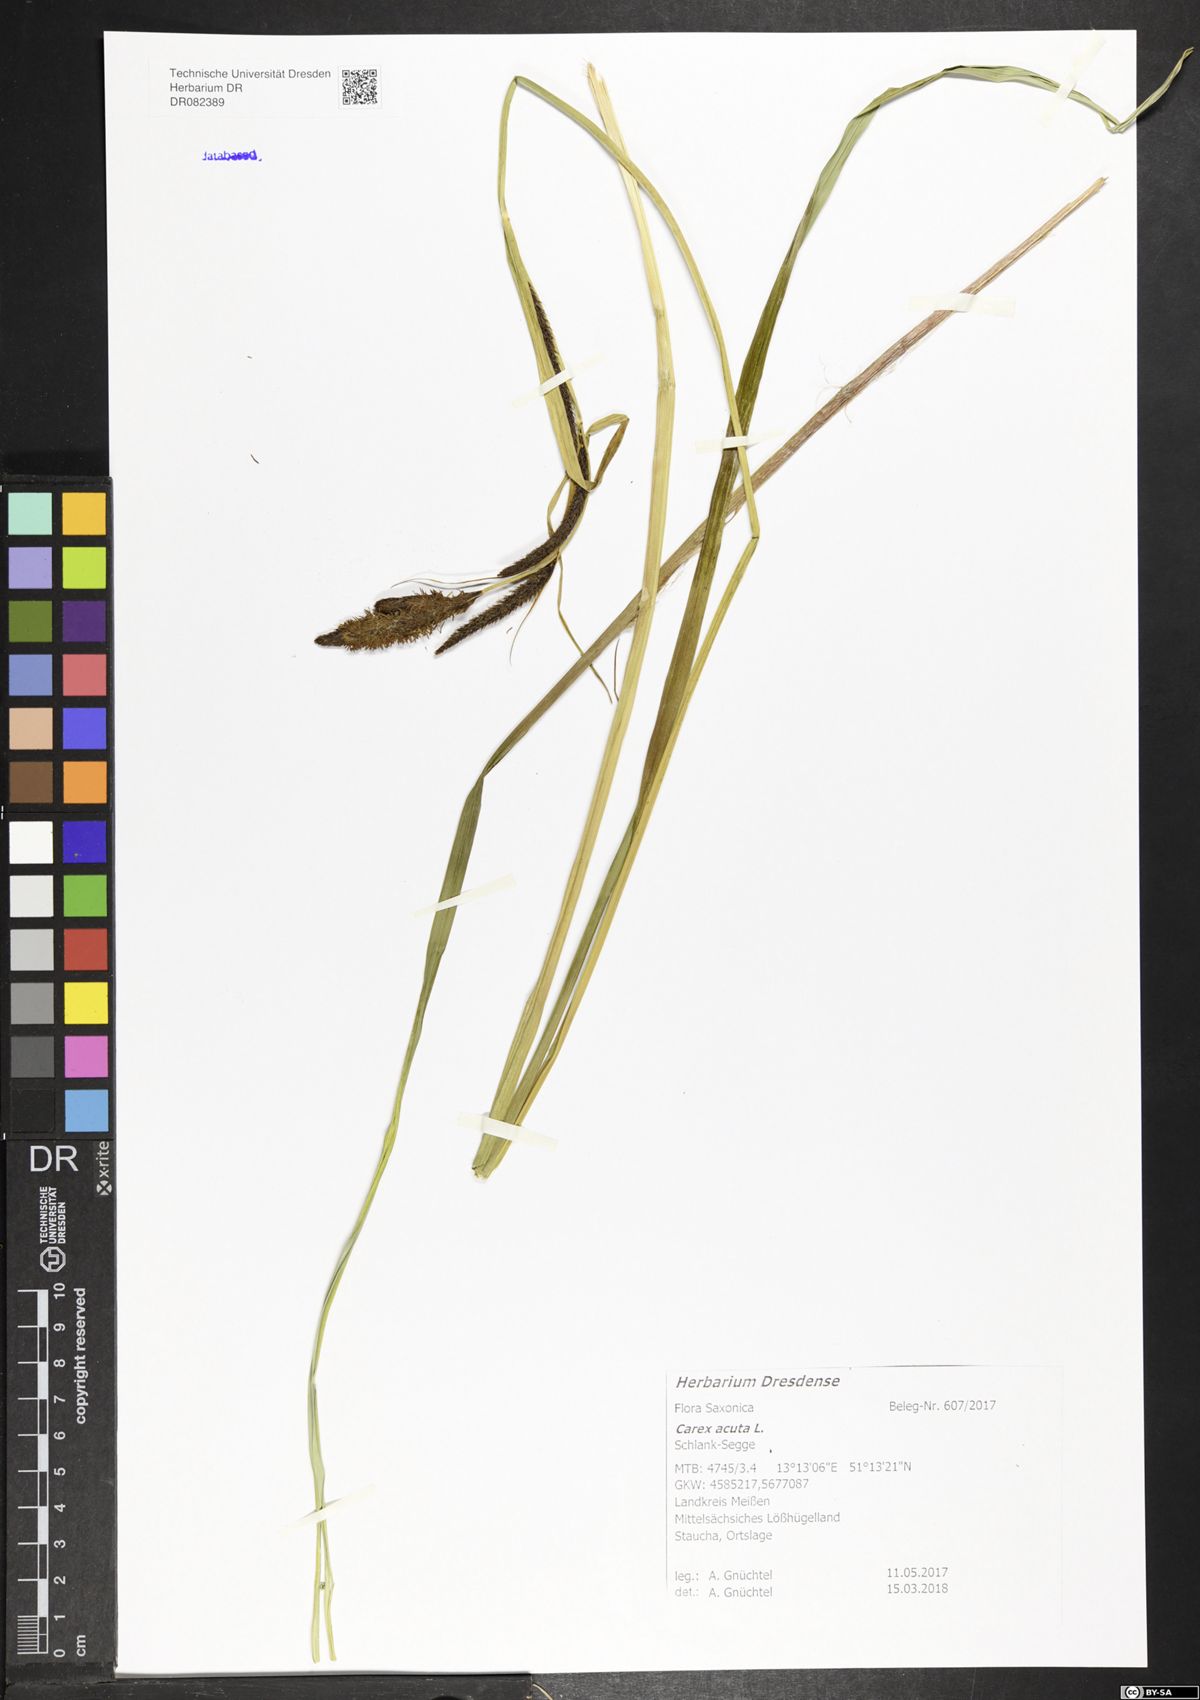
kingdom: Plantae
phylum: Tracheophyta
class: Liliopsida
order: Poales
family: Cyperaceae
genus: Carex
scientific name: Carex acuta
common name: Slender tufted-sedge
